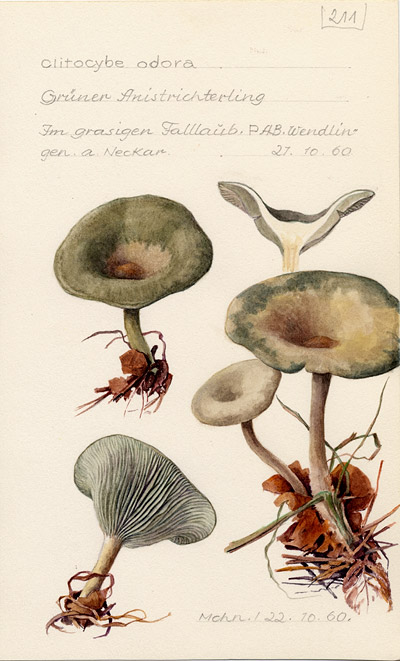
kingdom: Fungi
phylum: Basidiomycota
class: Agaricomycetes
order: Agaricales
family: Tricholomataceae
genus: Clitocybe
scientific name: Clitocybe odora
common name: Aniseed funnel
